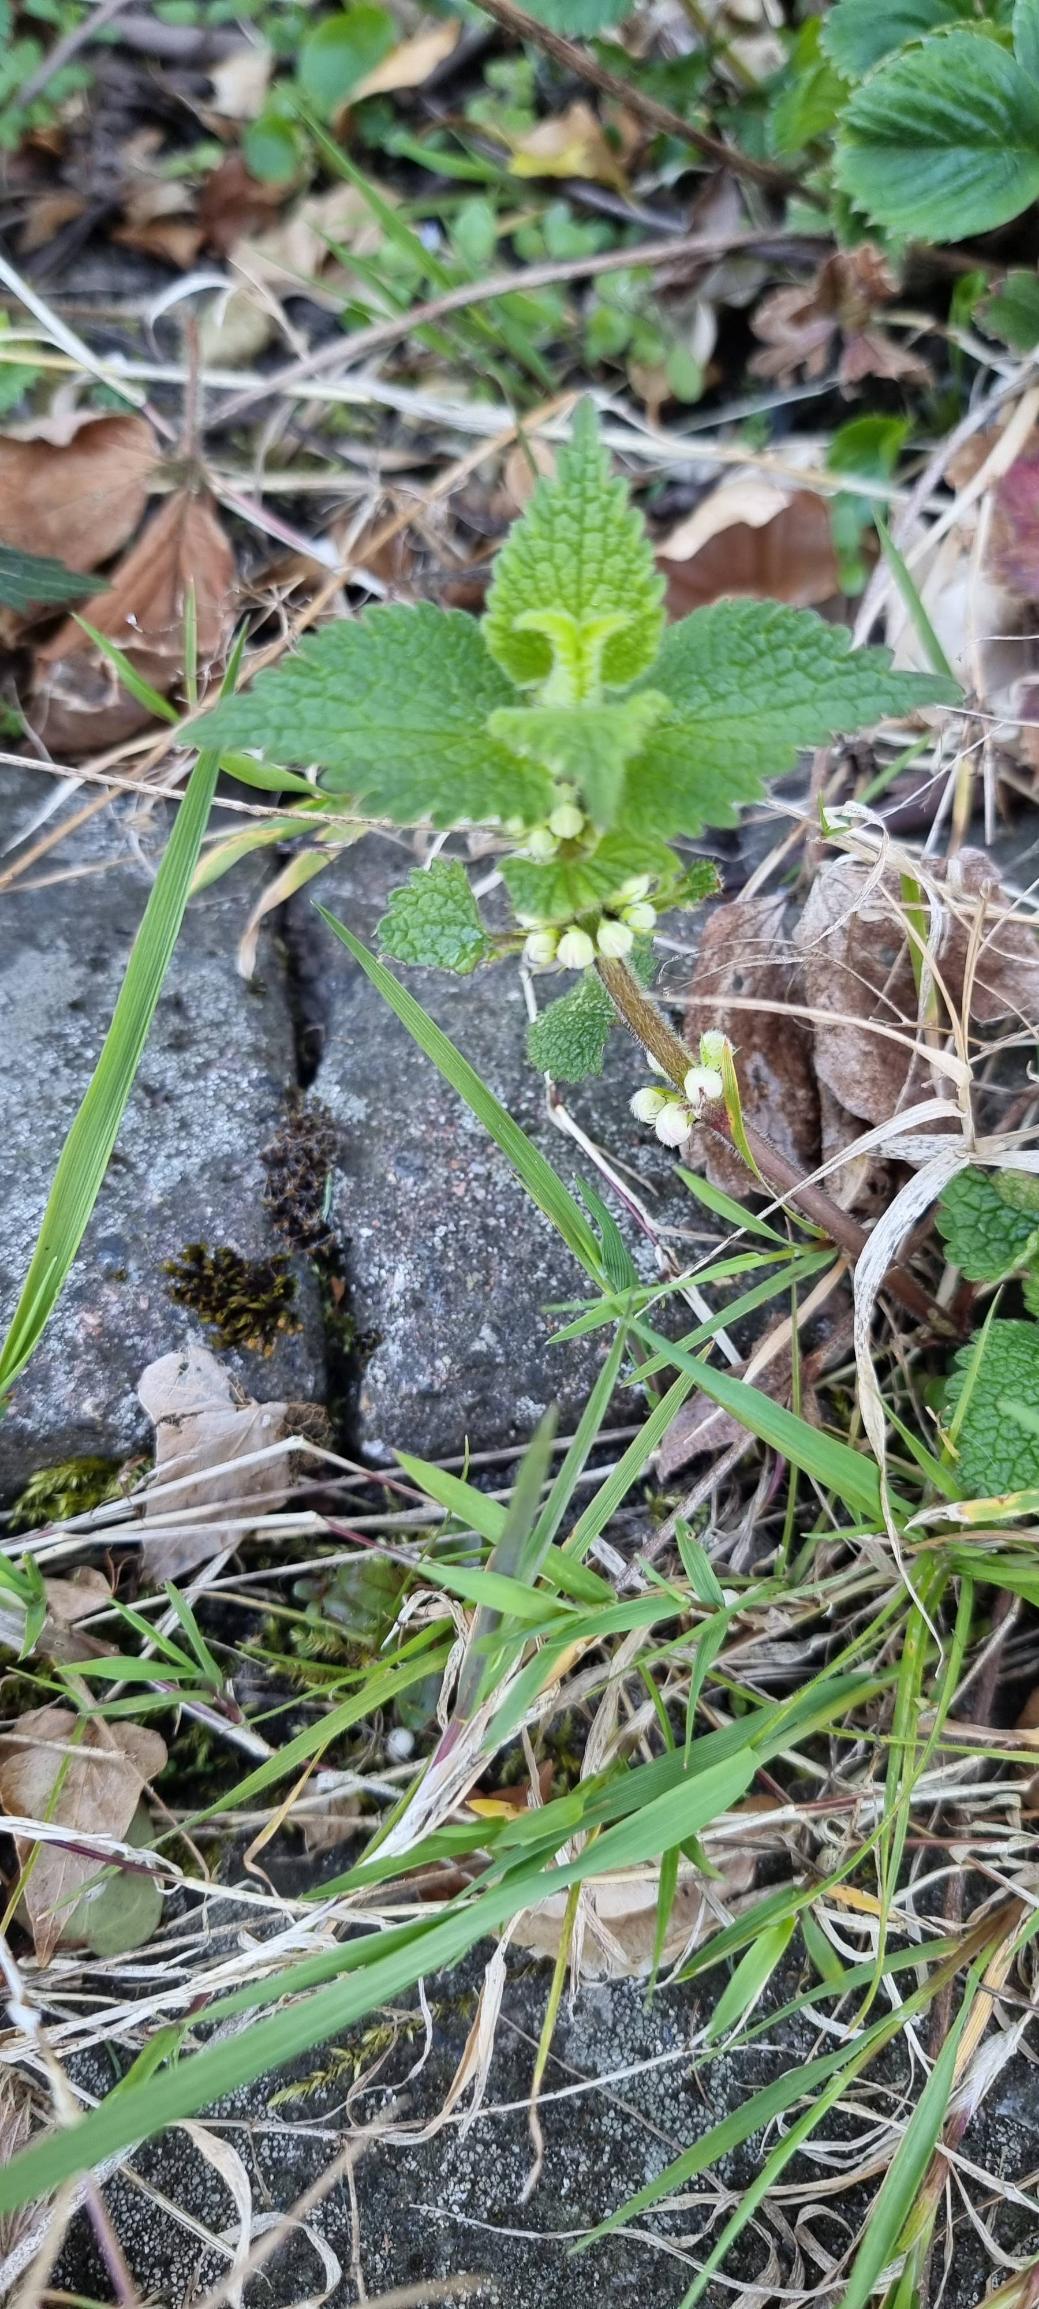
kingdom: Plantae
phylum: Tracheophyta
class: Magnoliopsida
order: Lamiales
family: Lamiaceae
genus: Lamium
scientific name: Lamium album
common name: Døvnælde
